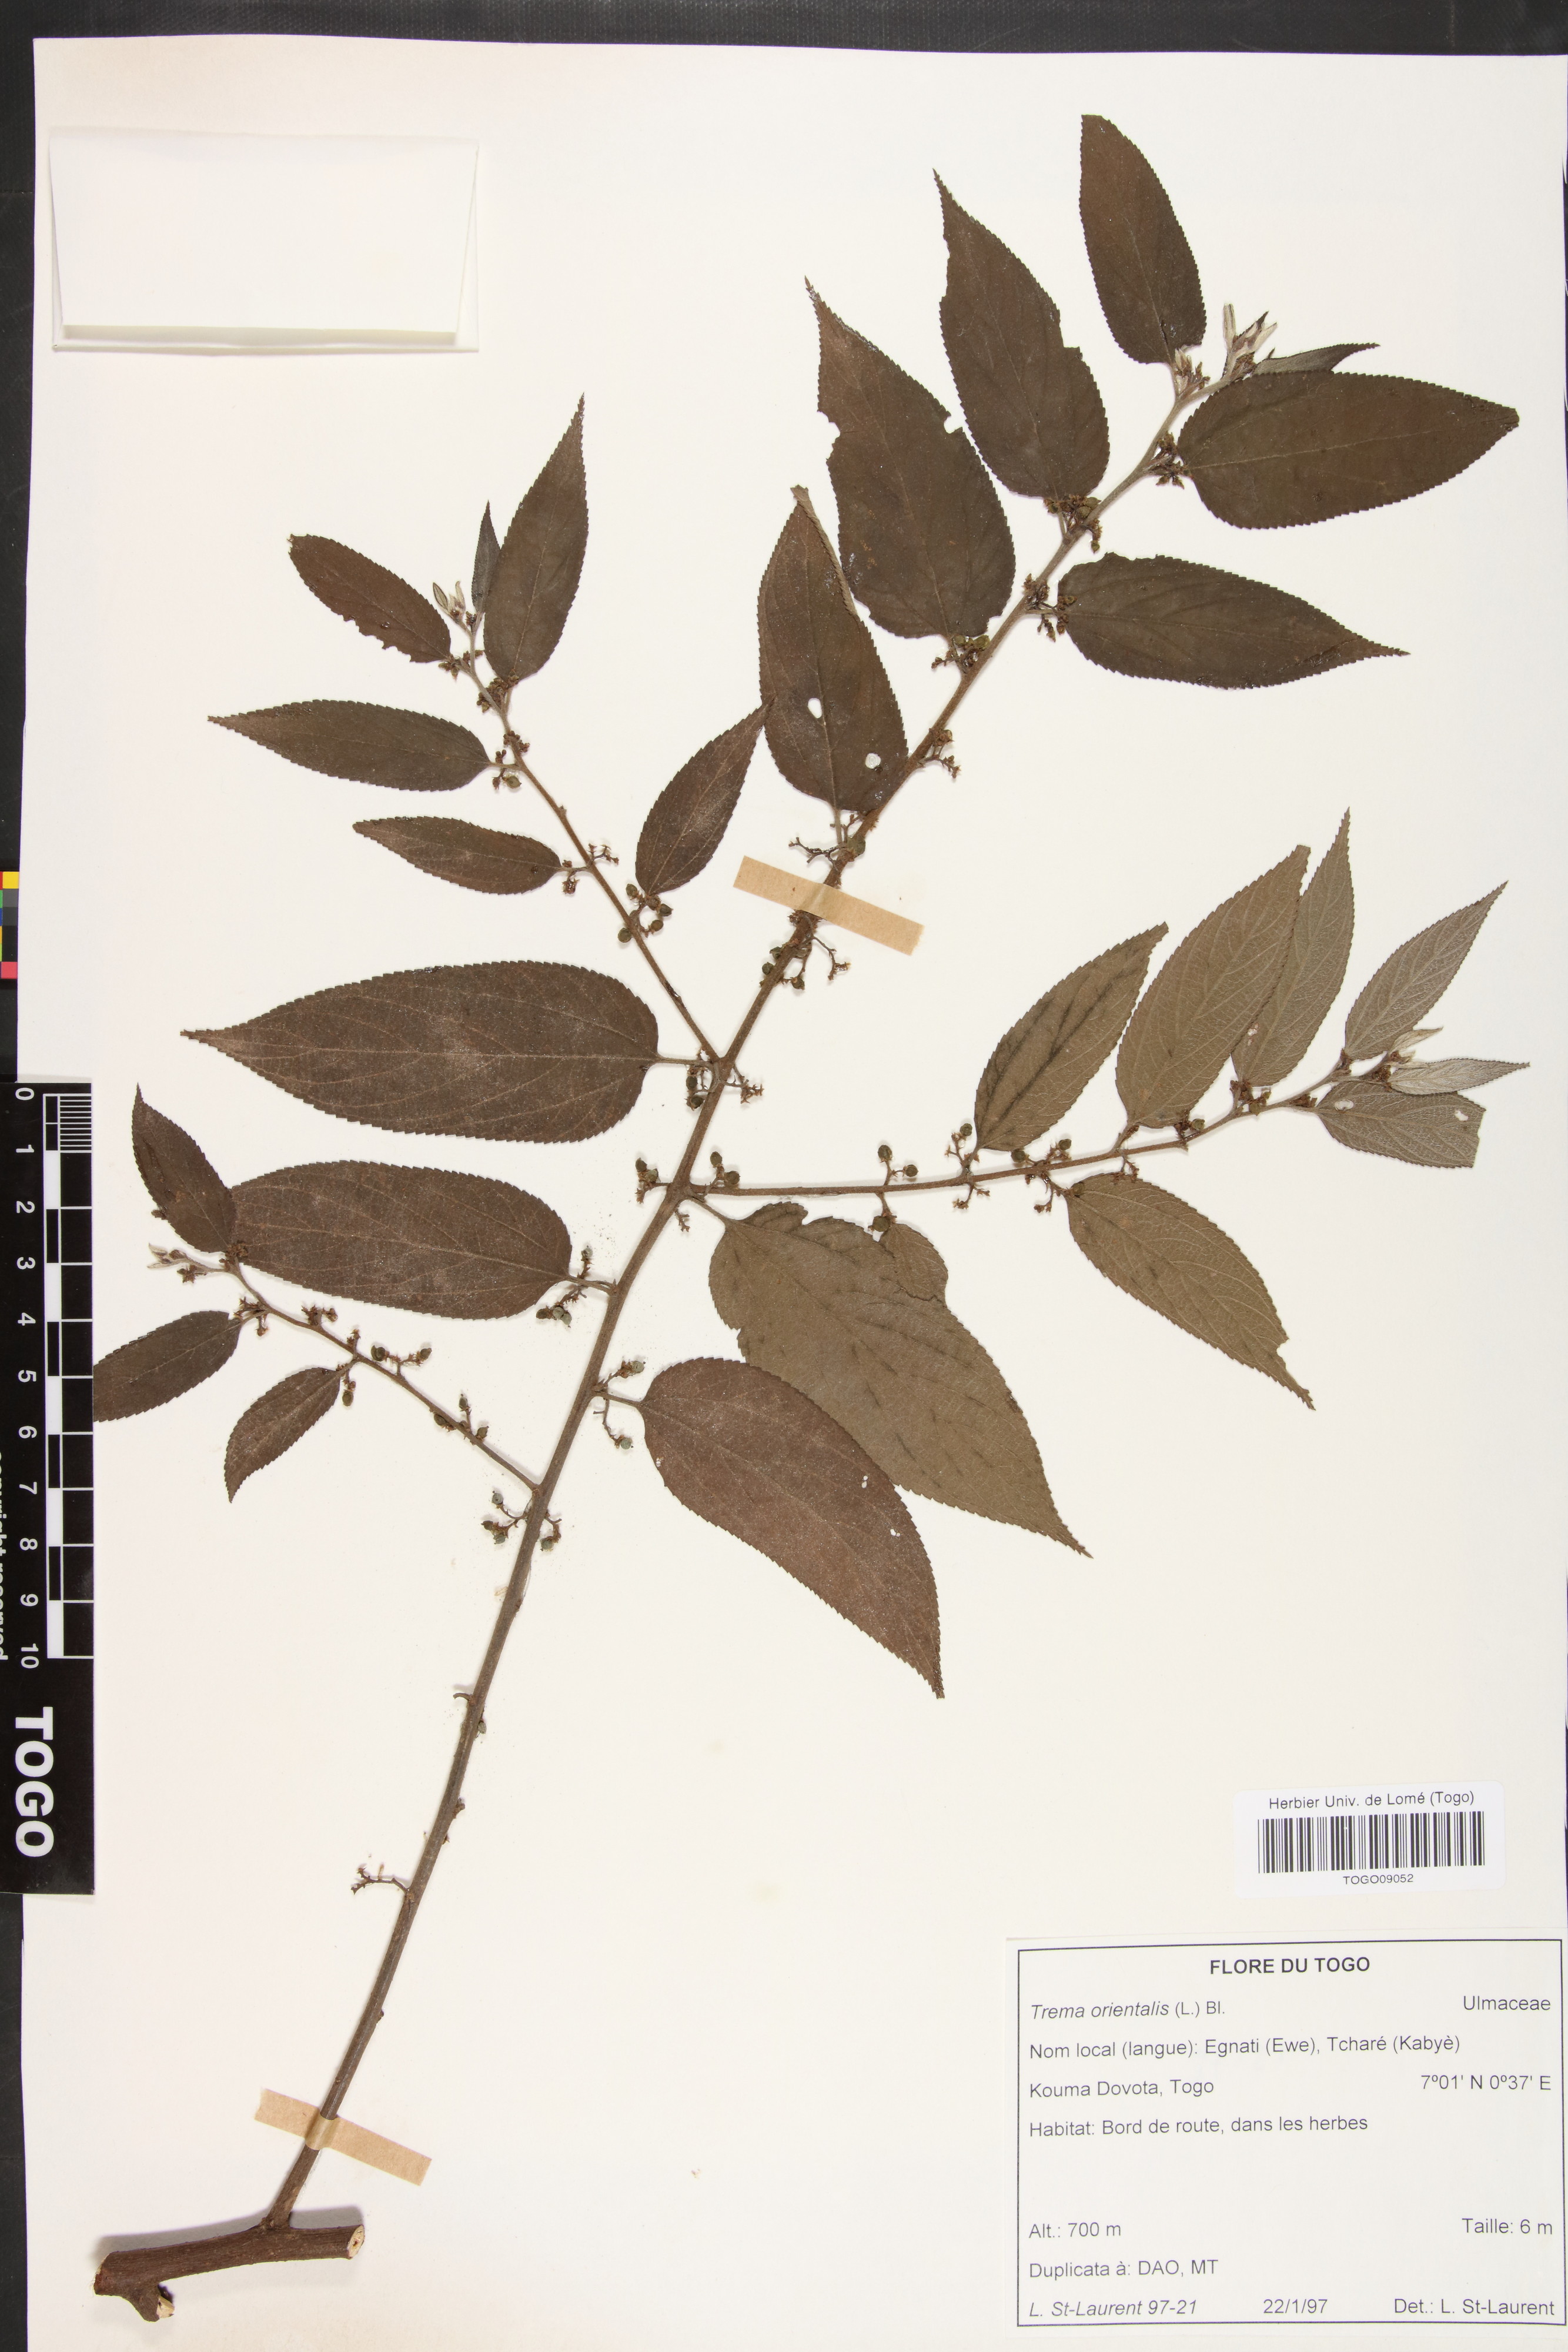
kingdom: Plantae
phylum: Tracheophyta
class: Magnoliopsida
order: Rosales
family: Cannabaceae
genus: Trema
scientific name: Trema orientale
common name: Indian charcoal tree
